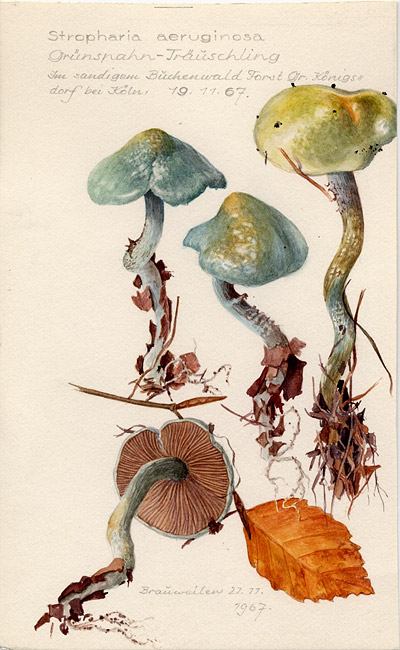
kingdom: Fungi
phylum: Basidiomycota
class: Agaricomycetes
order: Agaricales
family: Strophariaceae
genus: Stropharia
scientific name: Stropharia aeruginosa
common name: Verdigris roundhead
